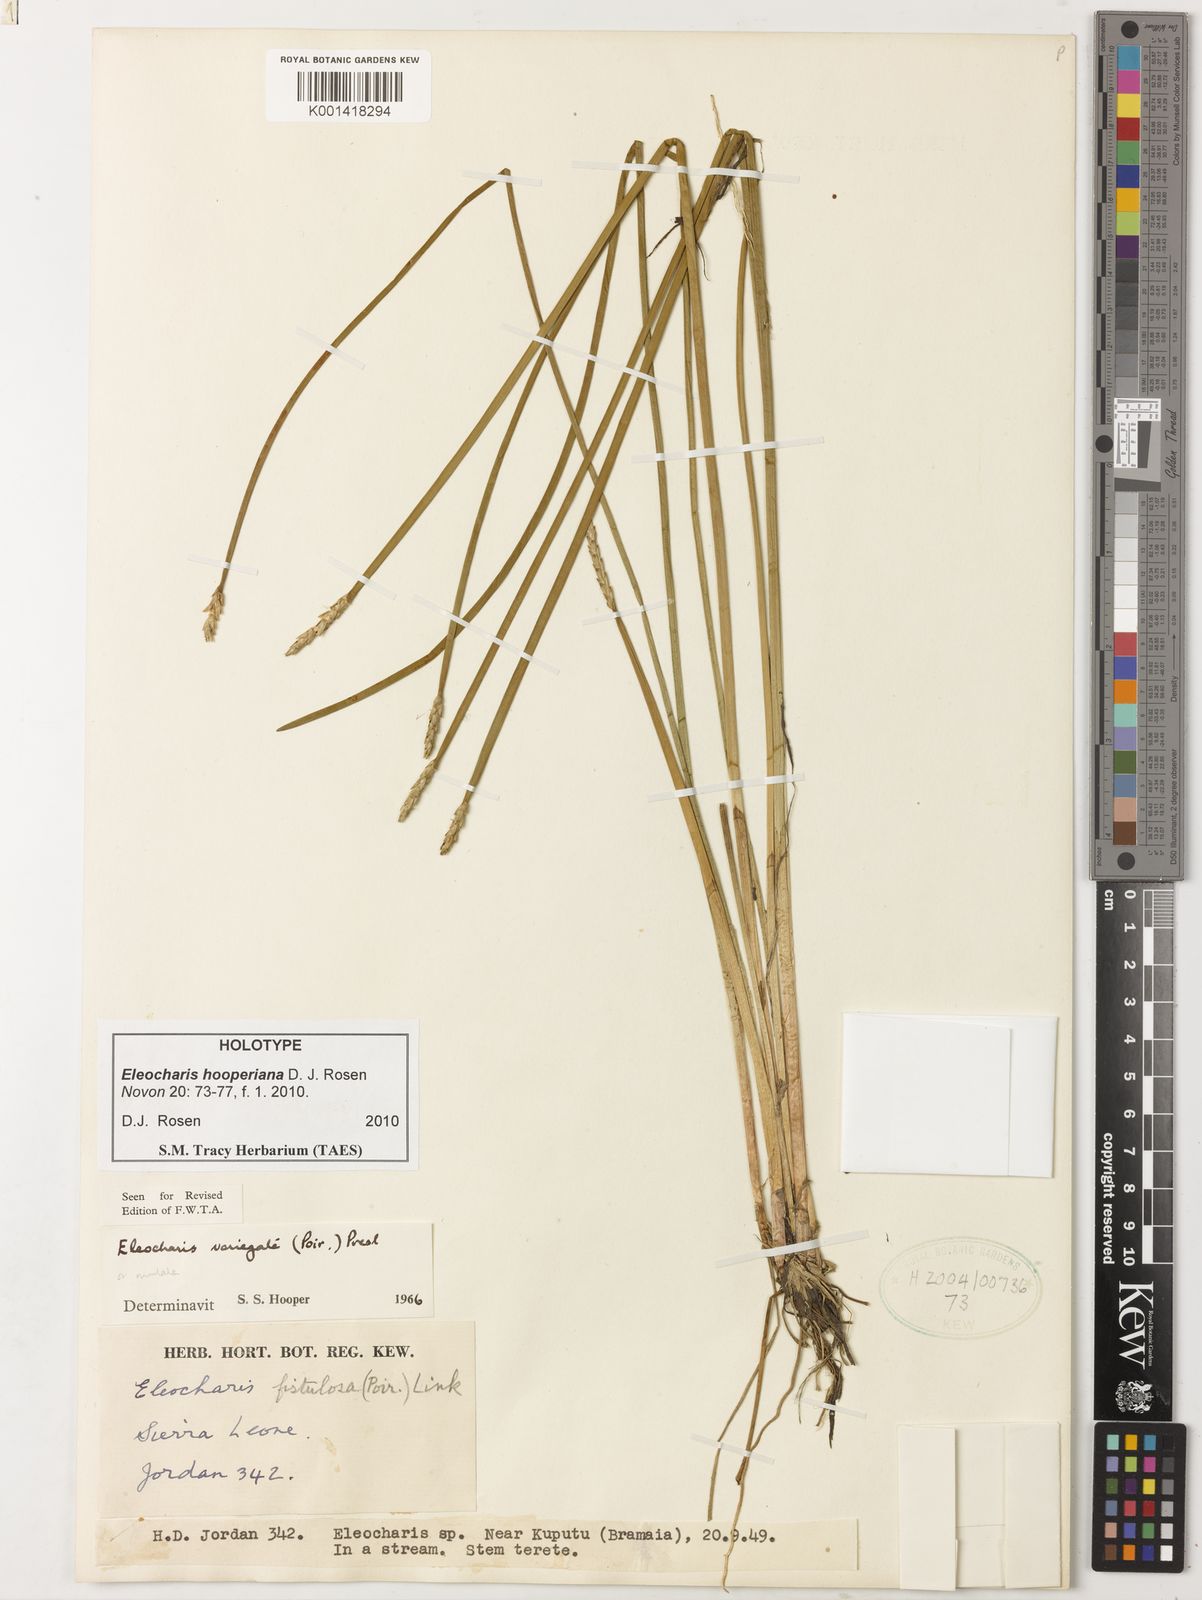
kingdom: Plantae
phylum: Tracheophyta
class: Liliopsida
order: Poales
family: Cyperaceae
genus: Eleocharis
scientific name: Eleocharis hooperiana
